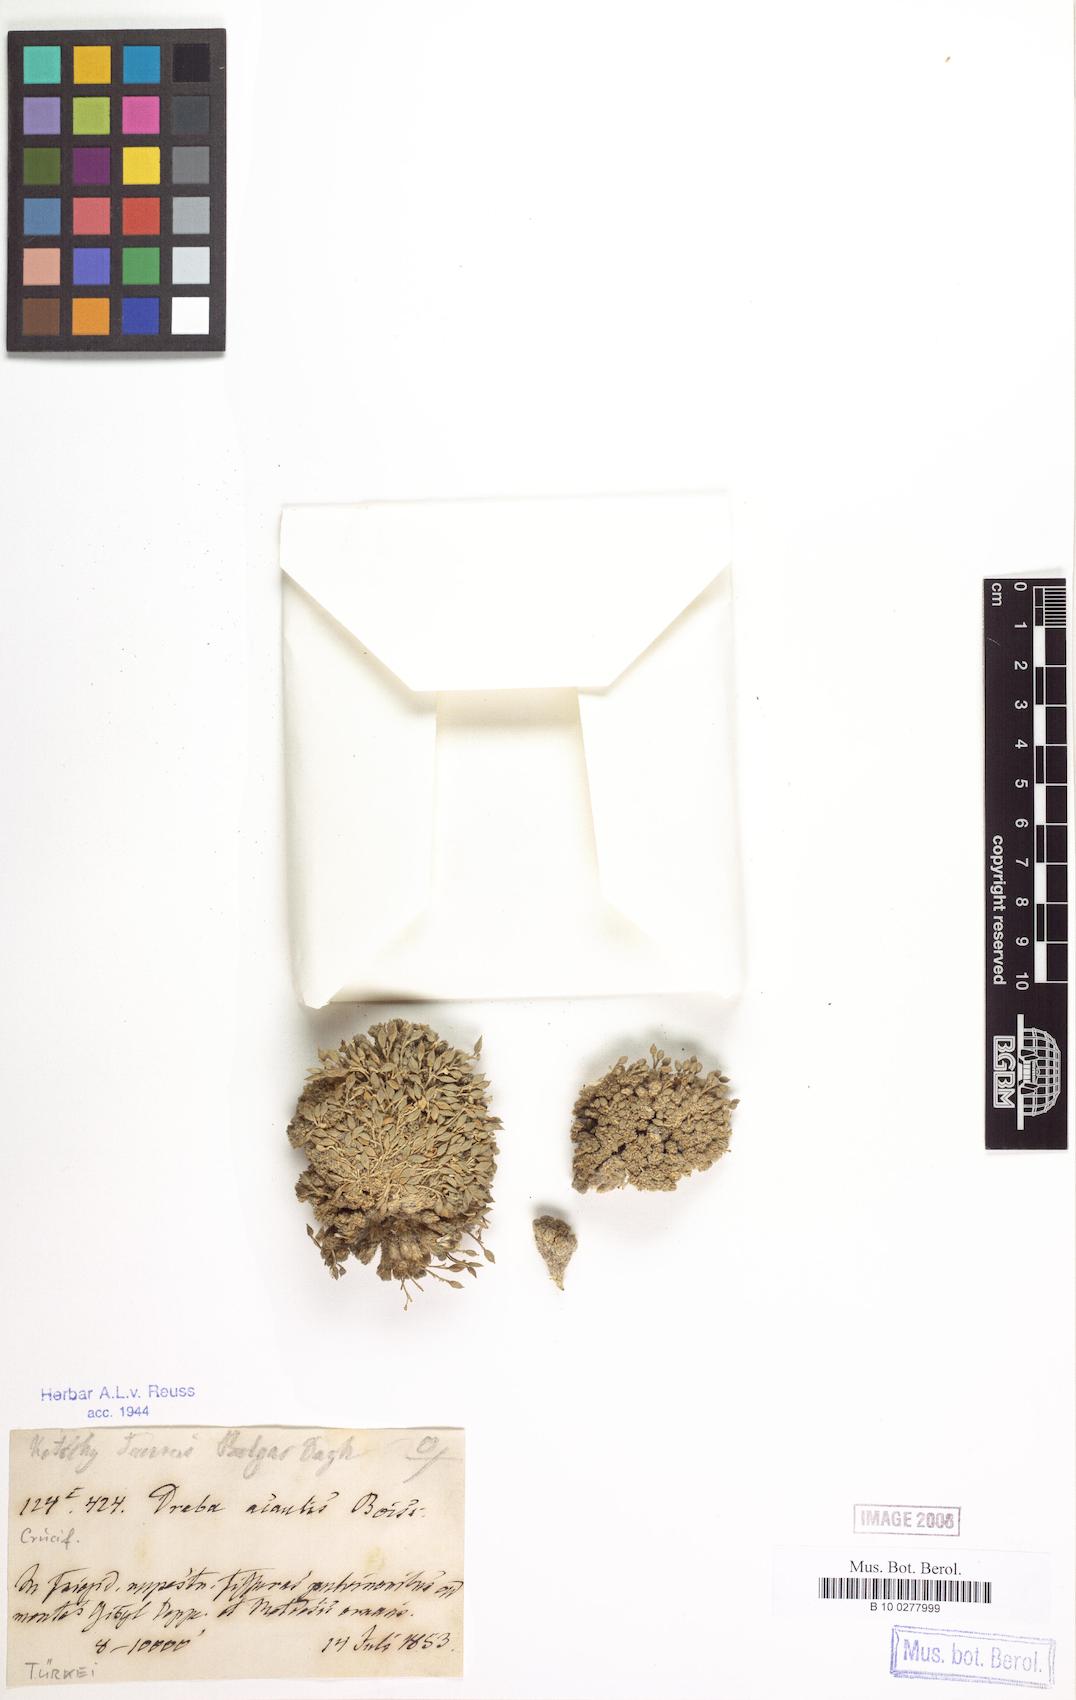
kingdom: Plantae
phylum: Tracheophyta
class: Magnoliopsida
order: Brassicales
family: Brassicaceae
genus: Draba
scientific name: Draba acaulis
